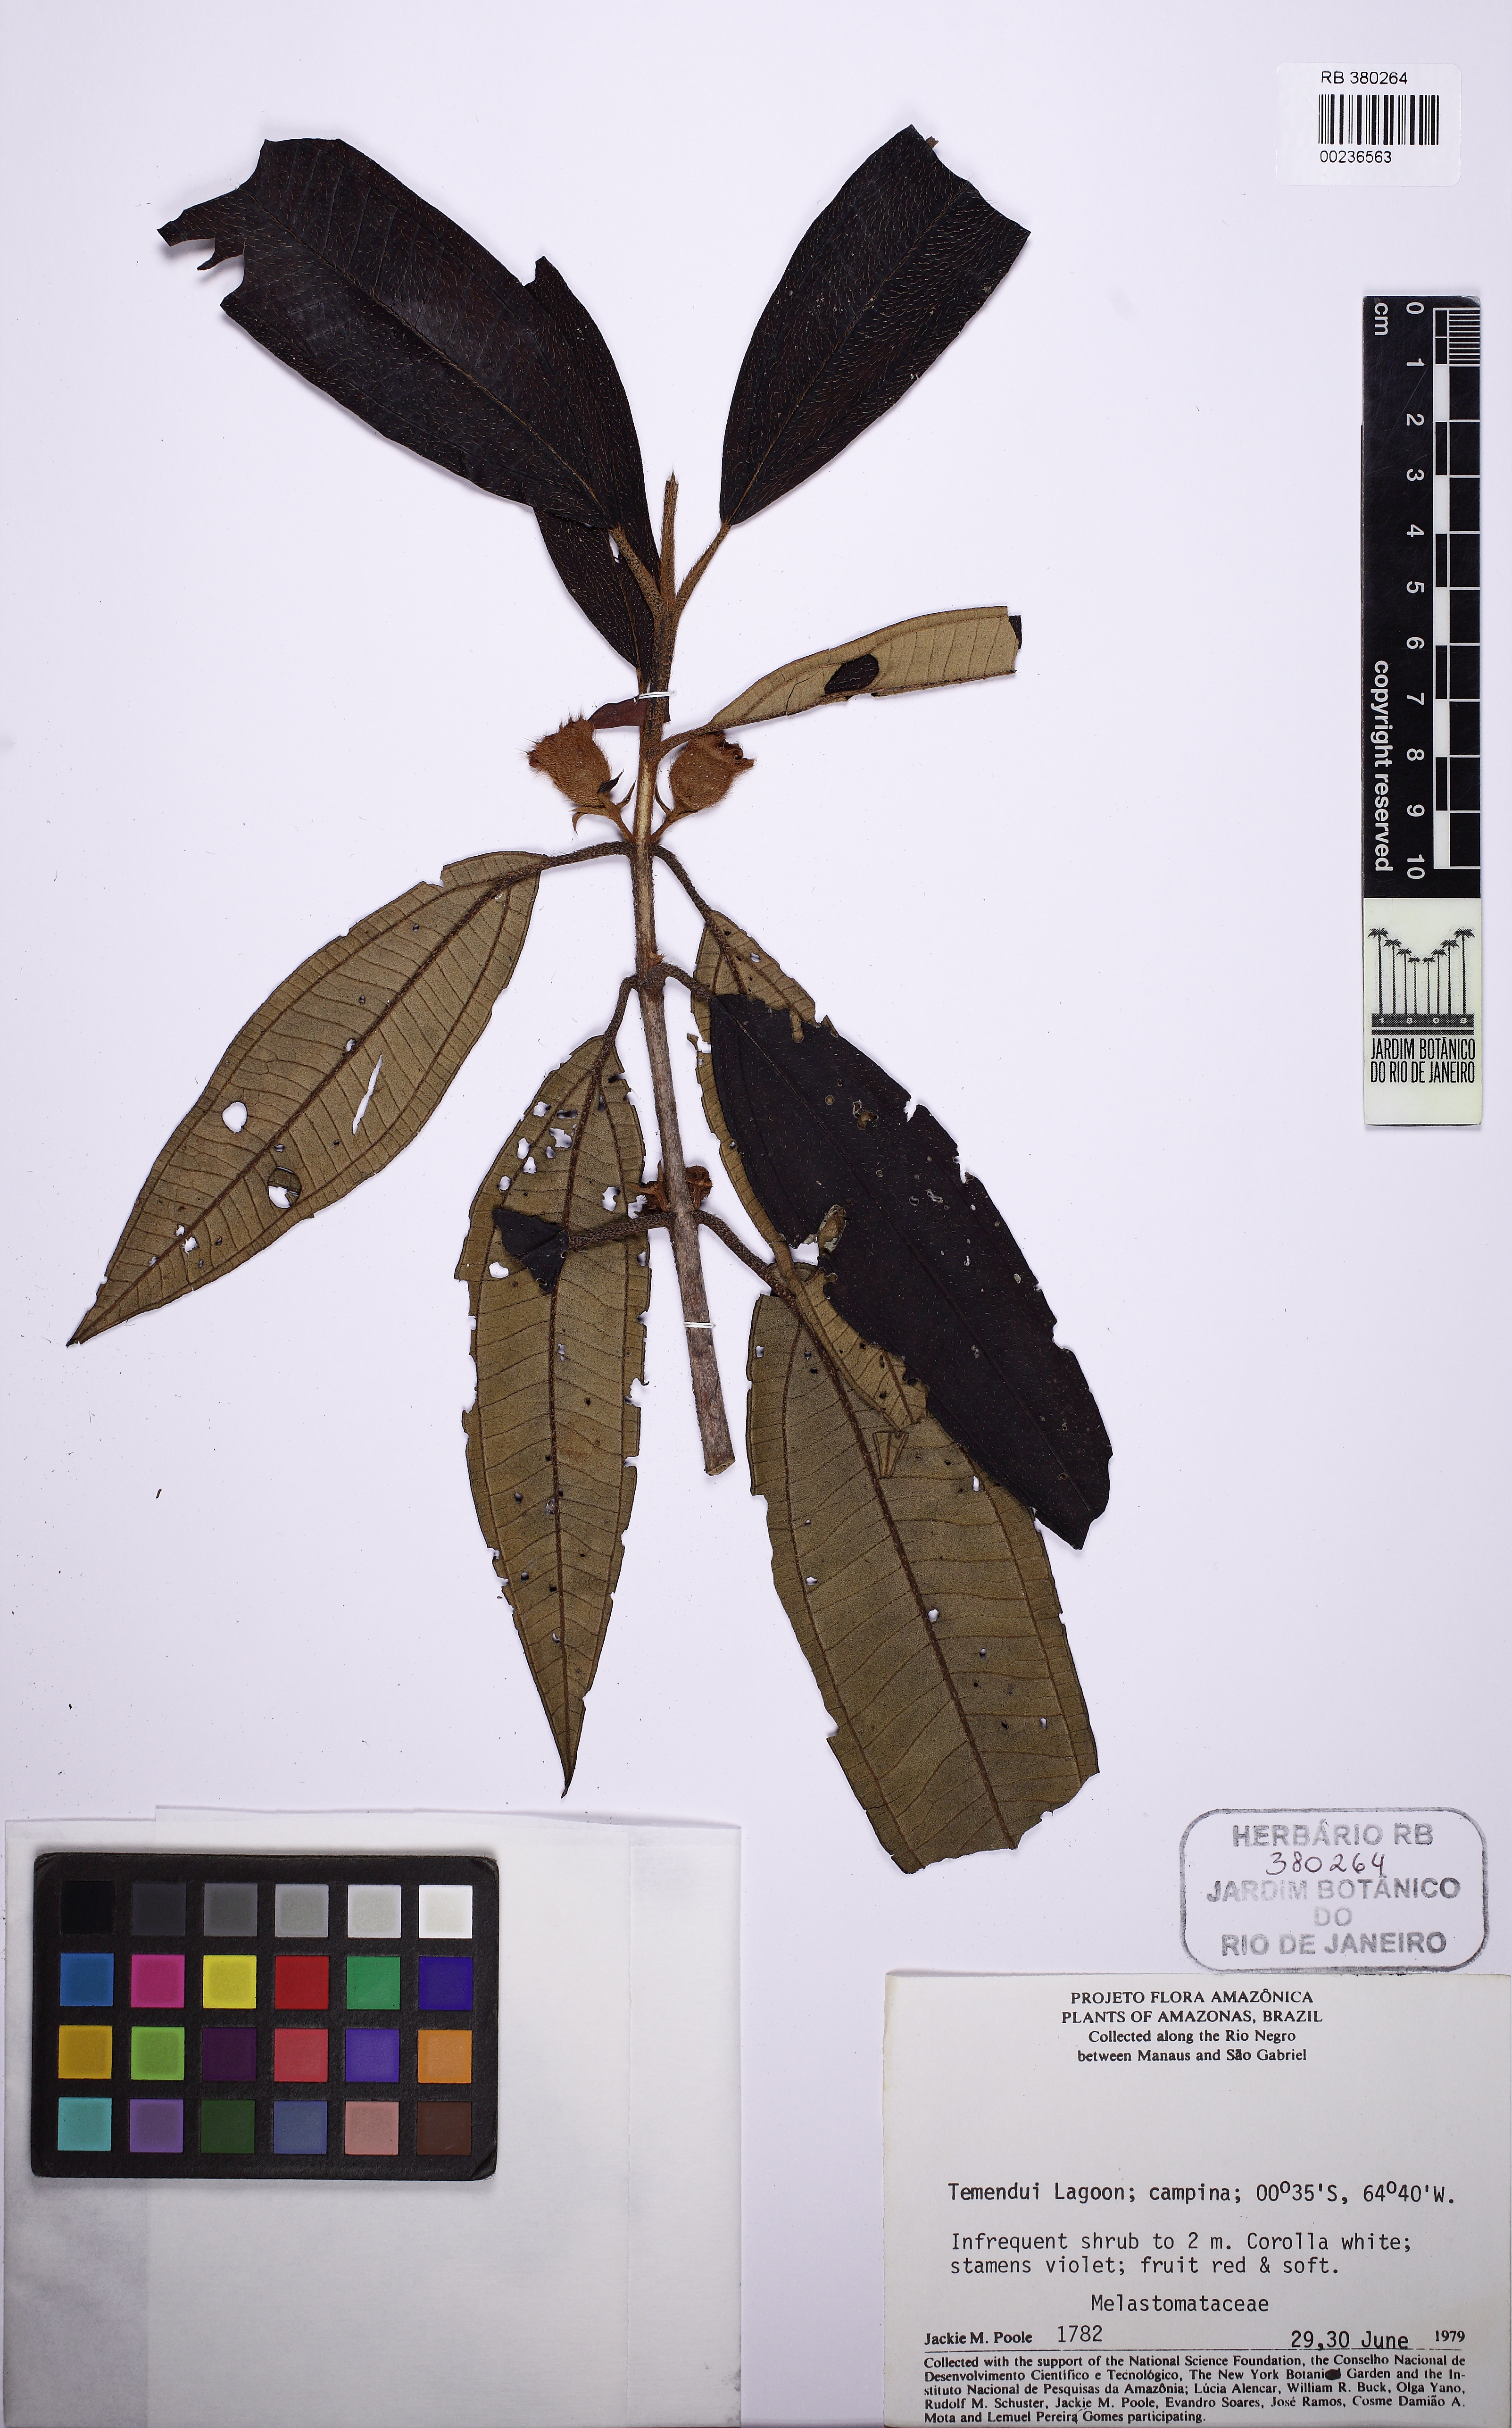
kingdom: Plantae
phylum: Tracheophyta
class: Magnoliopsida
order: Myrtales
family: Melastomataceae
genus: Henriettea
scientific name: Henriettea
